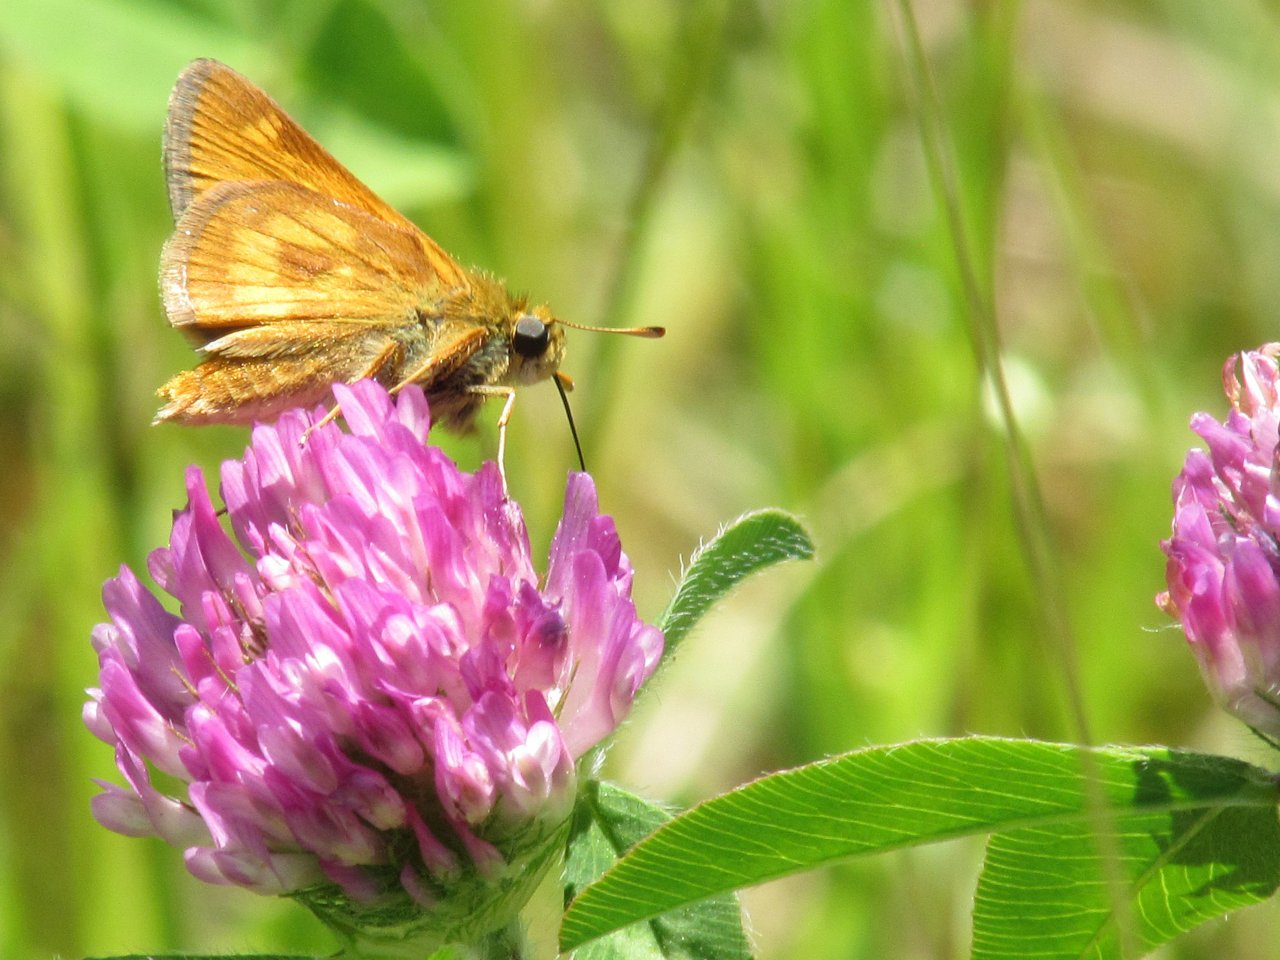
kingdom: Animalia
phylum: Arthropoda
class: Insecta
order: Lepidoptera
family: Hesperiidae
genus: Polites
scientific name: Polites
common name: Long Dash Skipper
